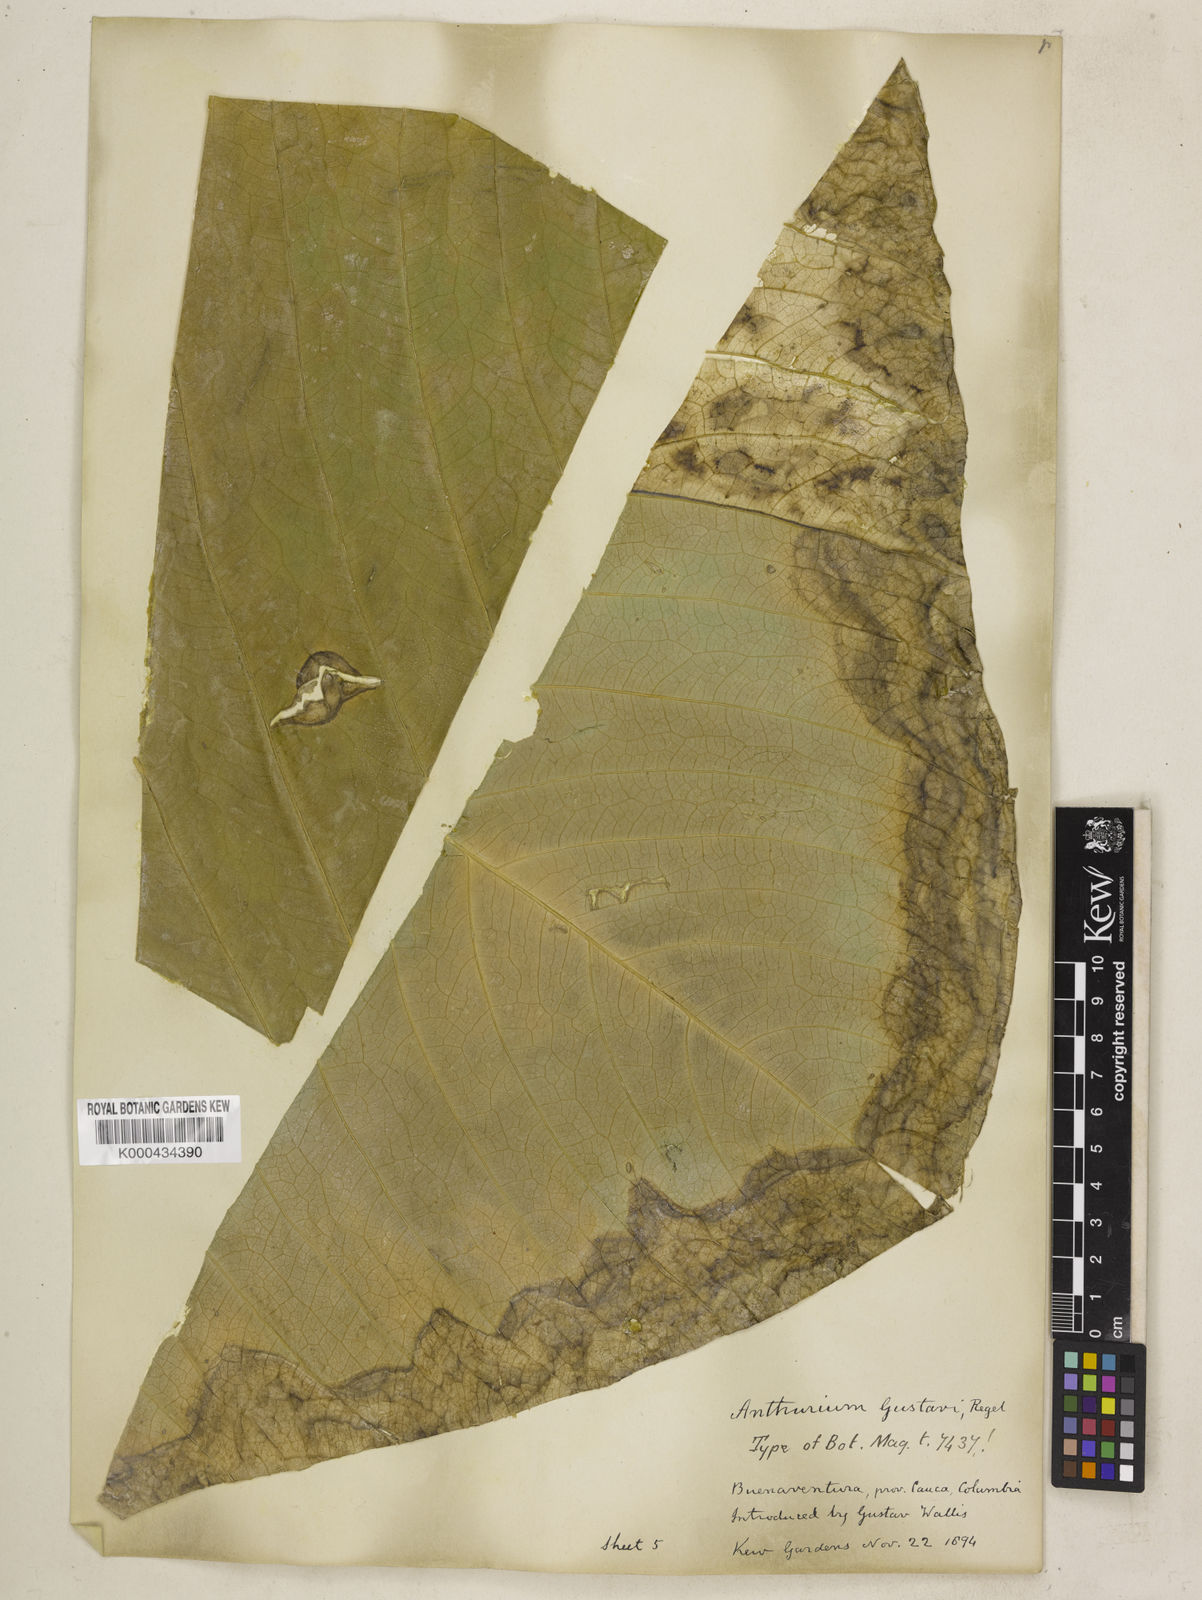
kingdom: Plantae
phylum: Tracheophyta
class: Liliopsida
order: Alismatales
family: Araceae
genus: Anthurium
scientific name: Anthurium gustavii
